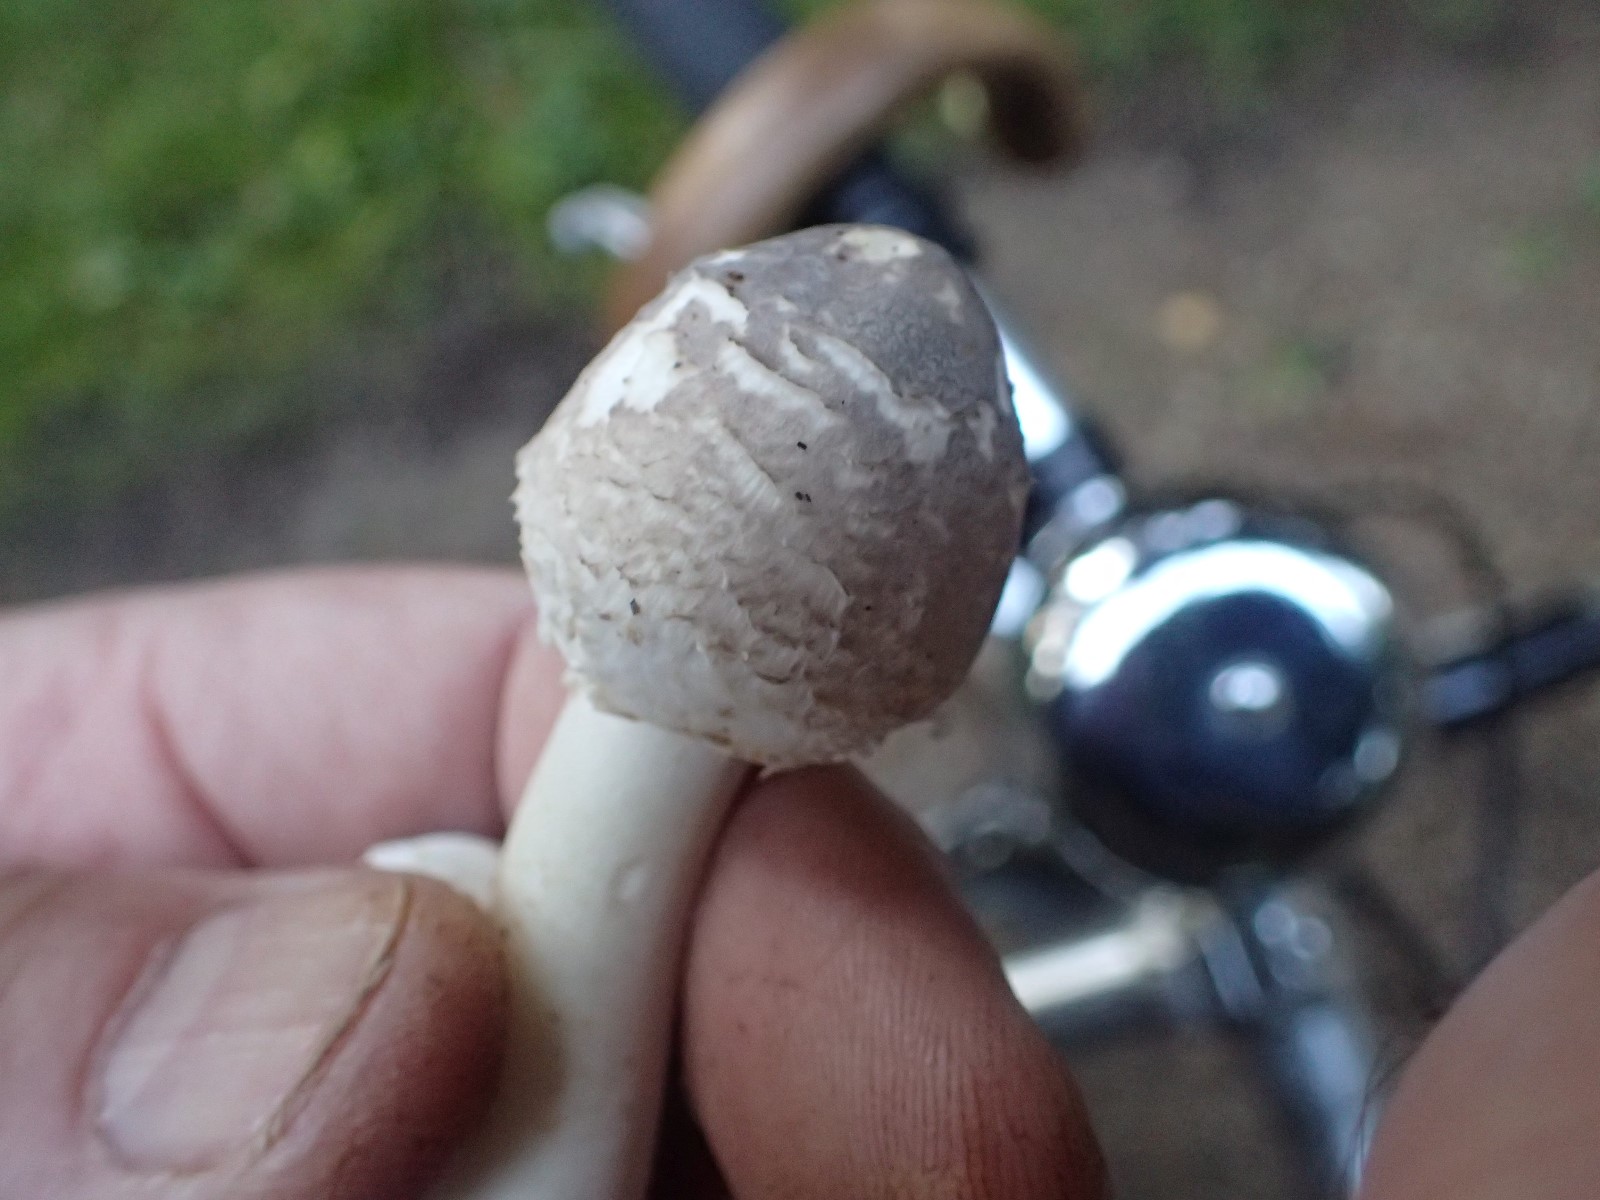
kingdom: Fungi
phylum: Basidiomycota
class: Agaricomycetes
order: Agaricales
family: Agaricaceae
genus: Leucoagaricus
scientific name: Leucoagaricus
